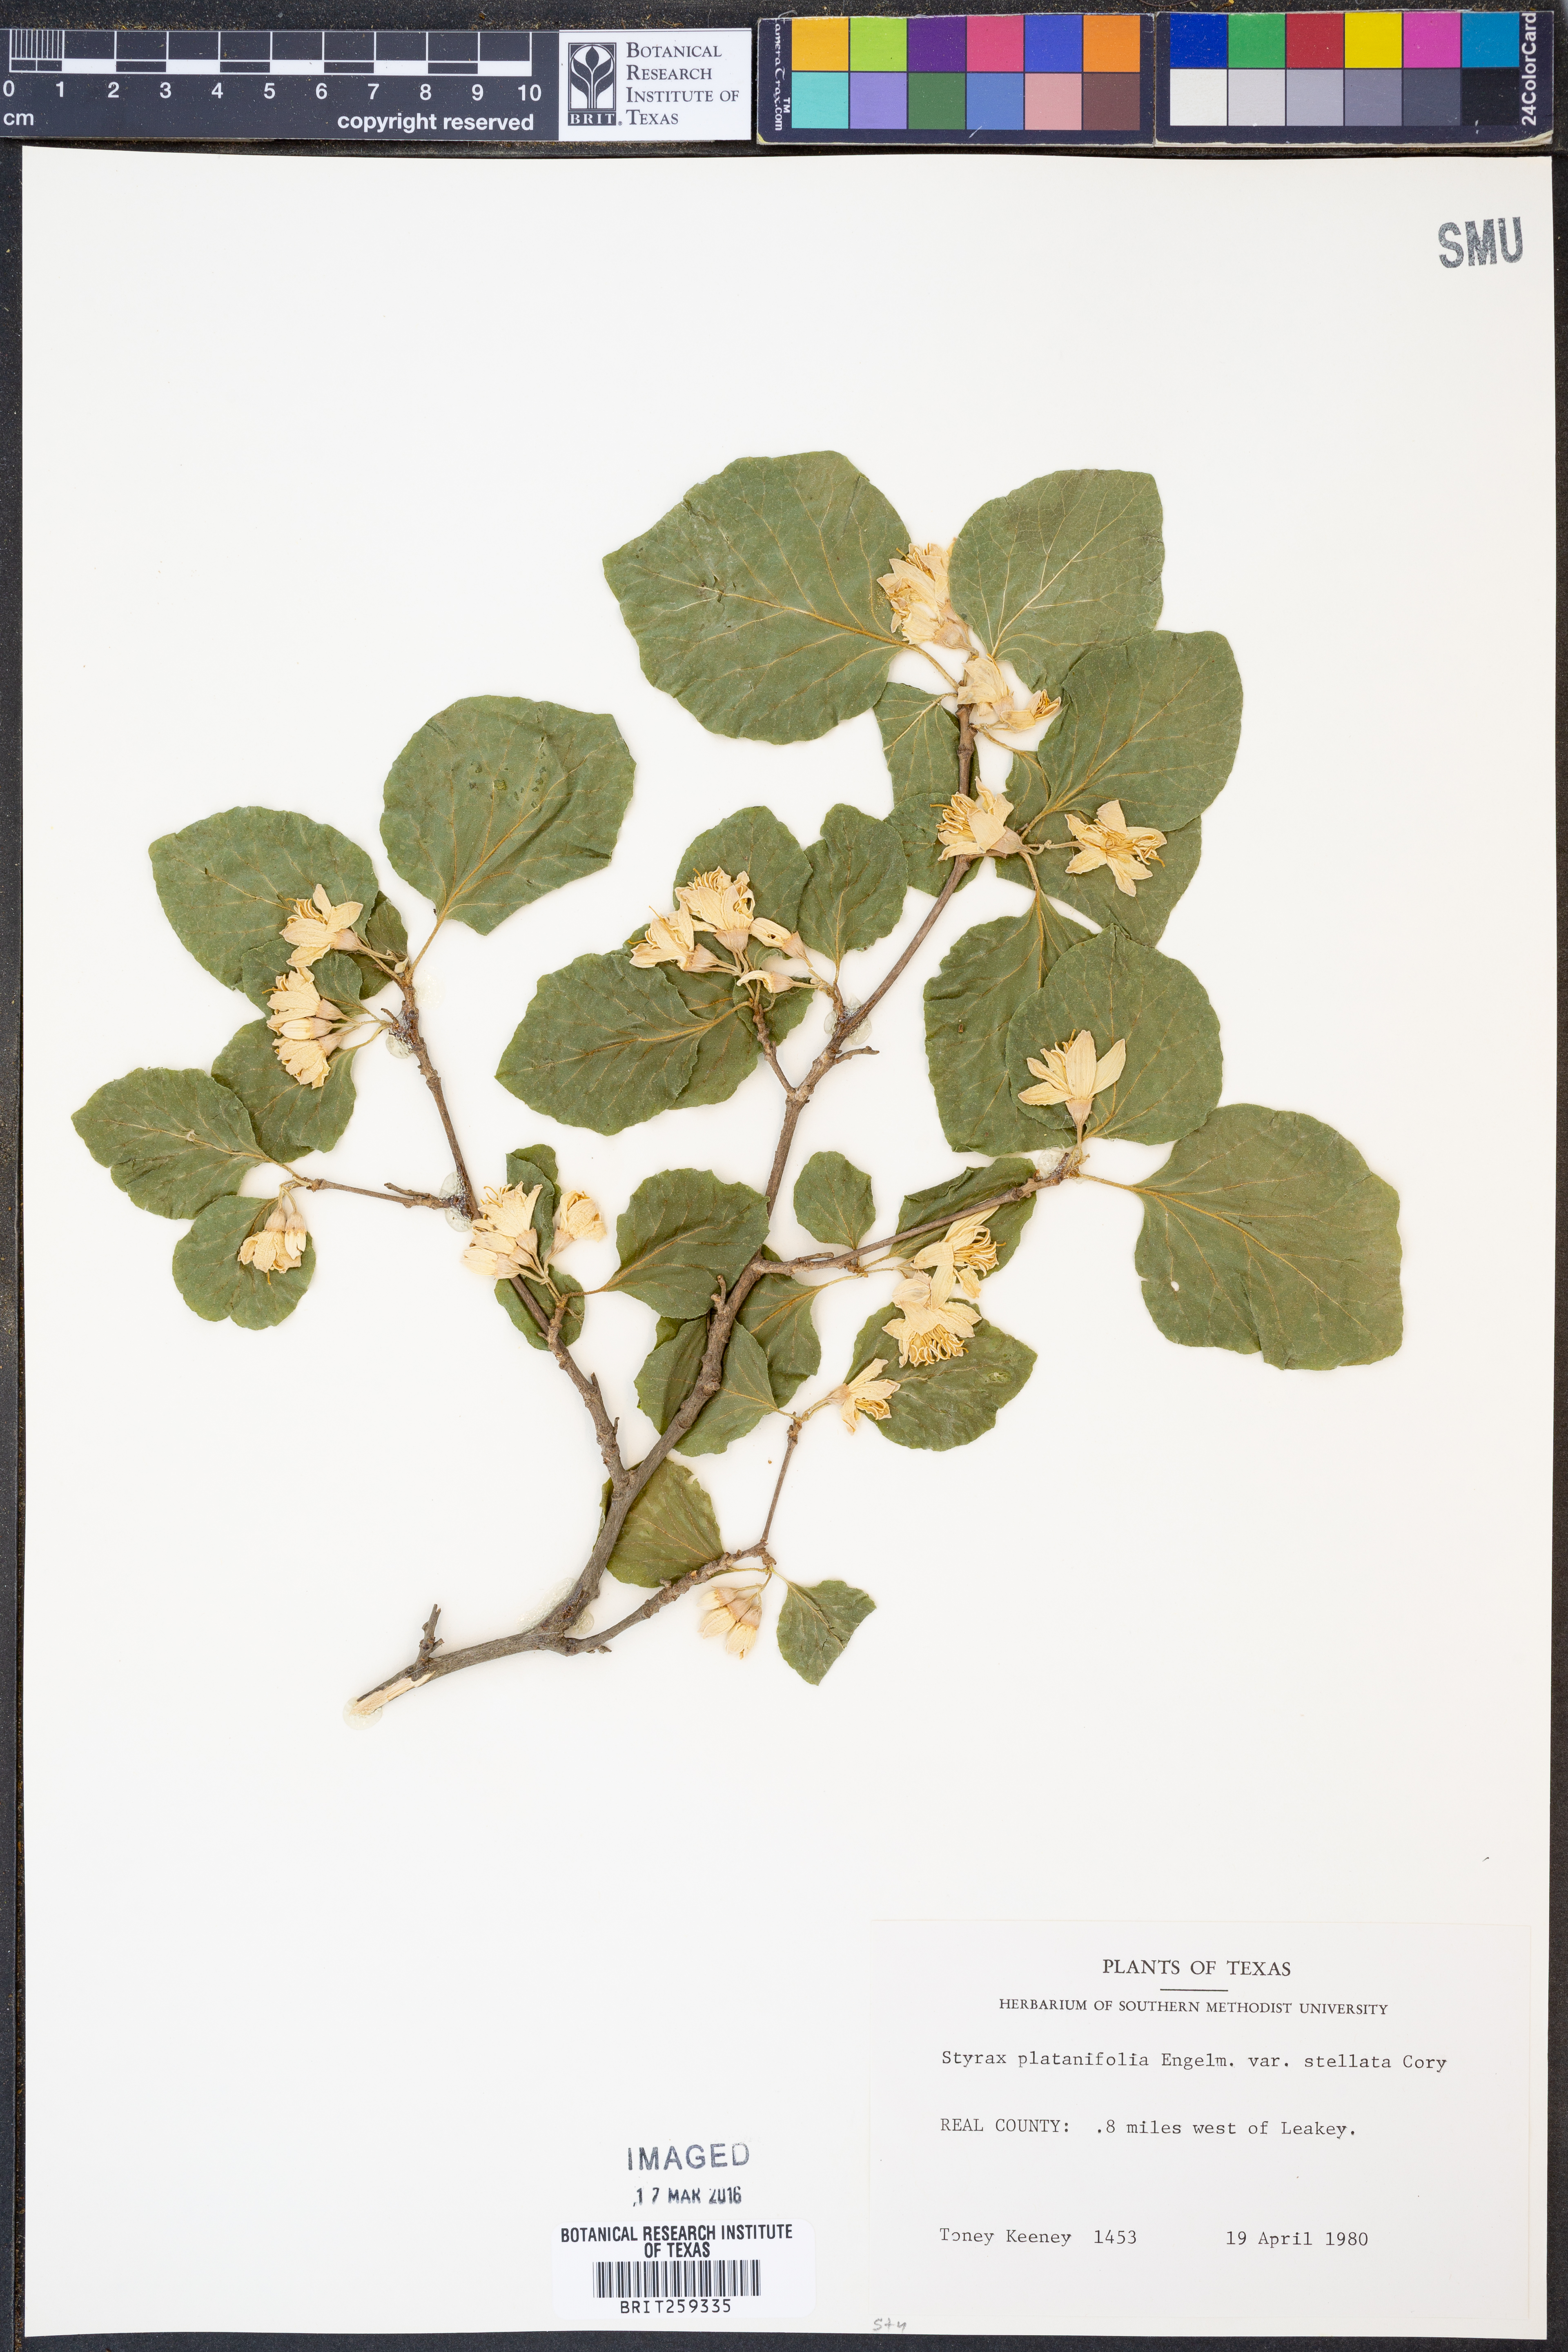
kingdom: Plantae
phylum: Tracheophyta
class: Magnoliopsida
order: Ericales
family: Styracaceae
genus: Styrax
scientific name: Styrax platanifolius
